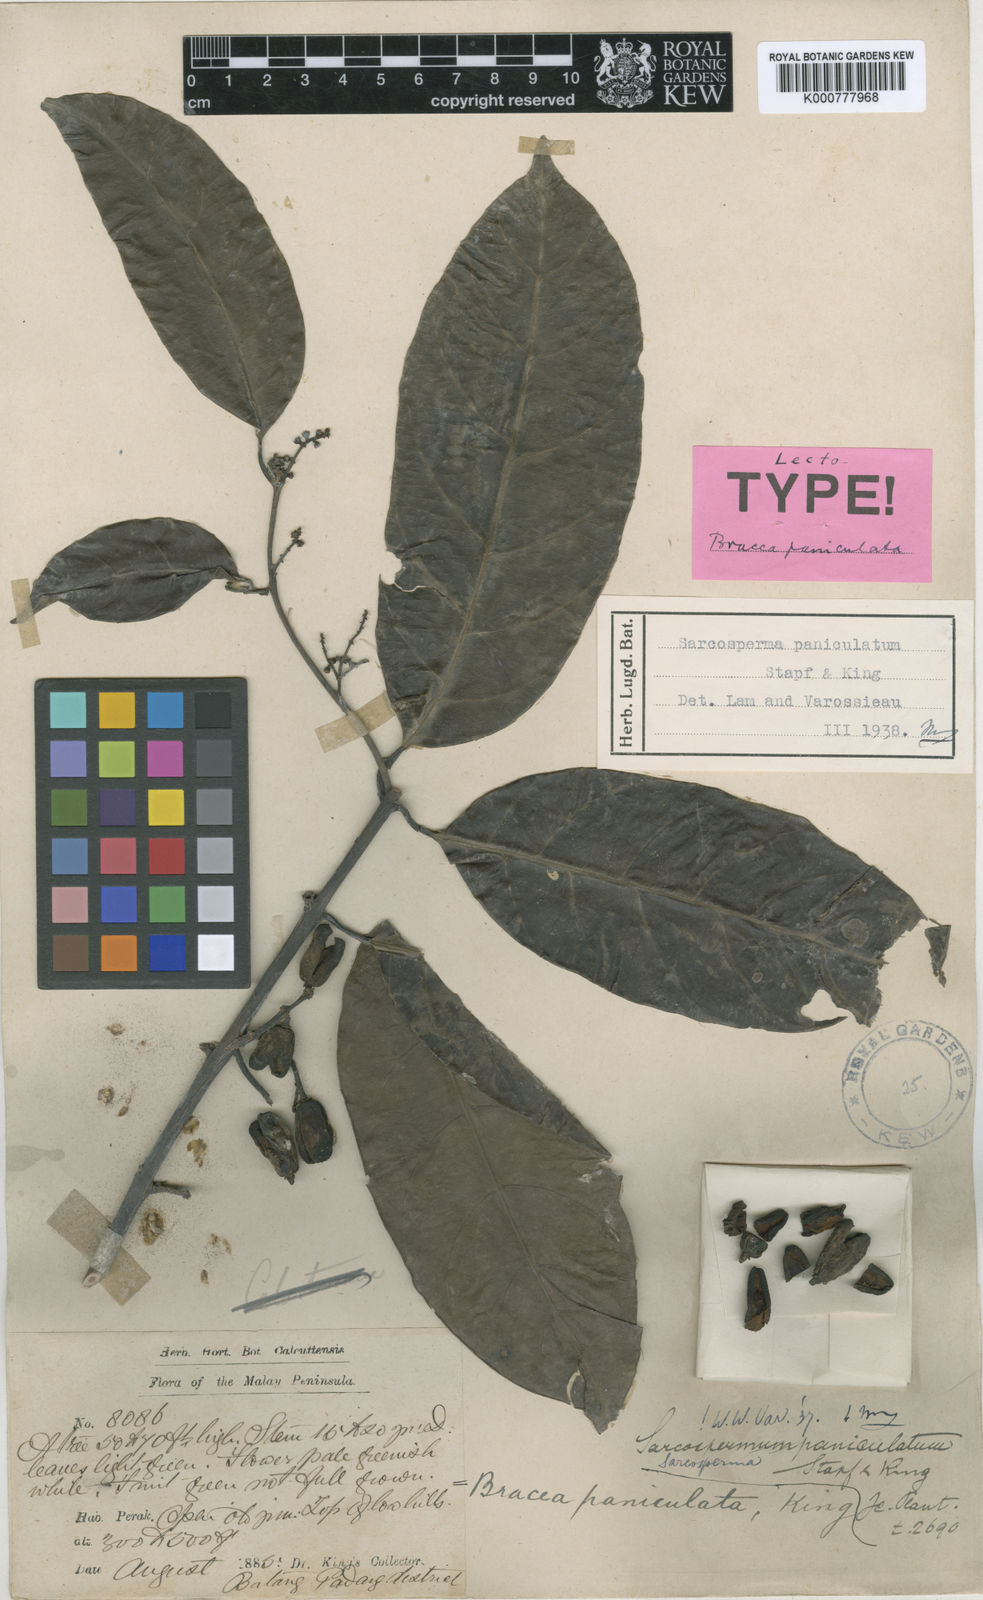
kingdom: Plantae
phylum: Tracheophyta
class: Magnoliopsida
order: Ericales
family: Sapotaceae
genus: Sarcosperma
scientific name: Sarcosperma paniculatum
